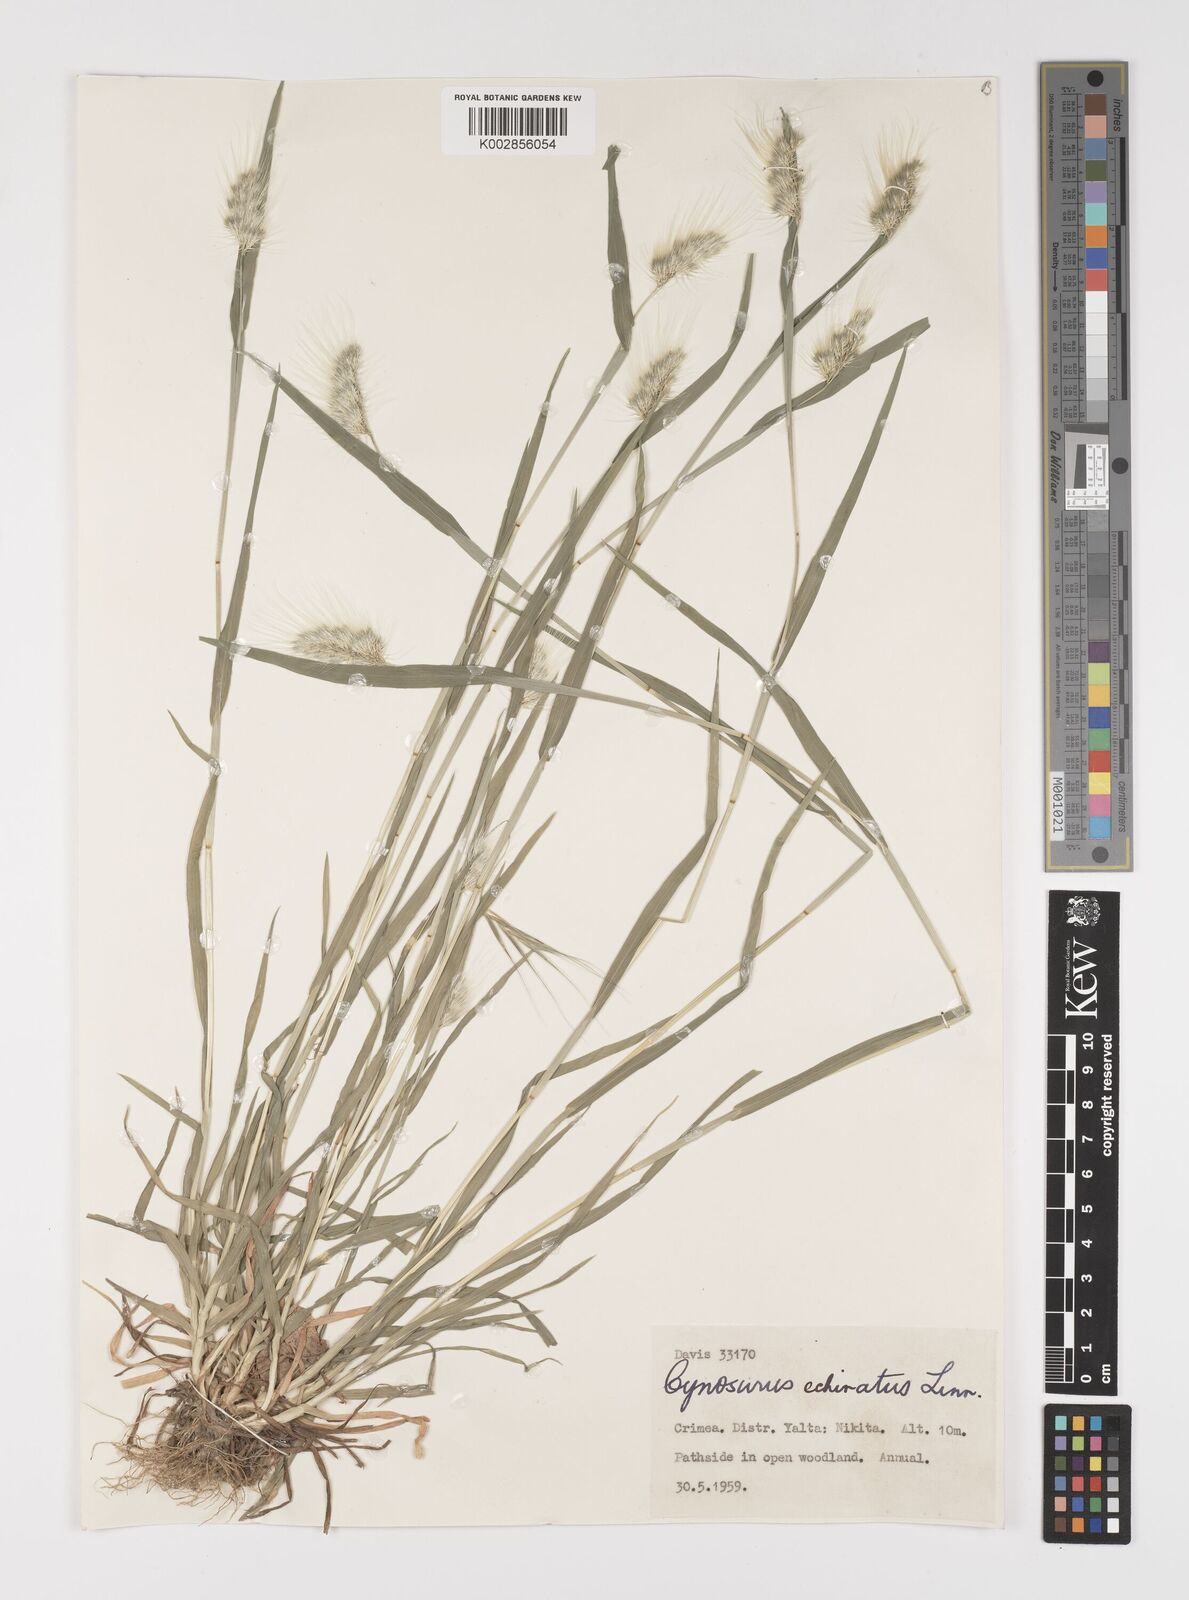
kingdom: Plantae
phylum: Tracheophyta
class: Liliopsida
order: Poales
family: Poaceae
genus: Cynosurus
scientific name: Cynosurus echinatus
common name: Rough dog's-tail
